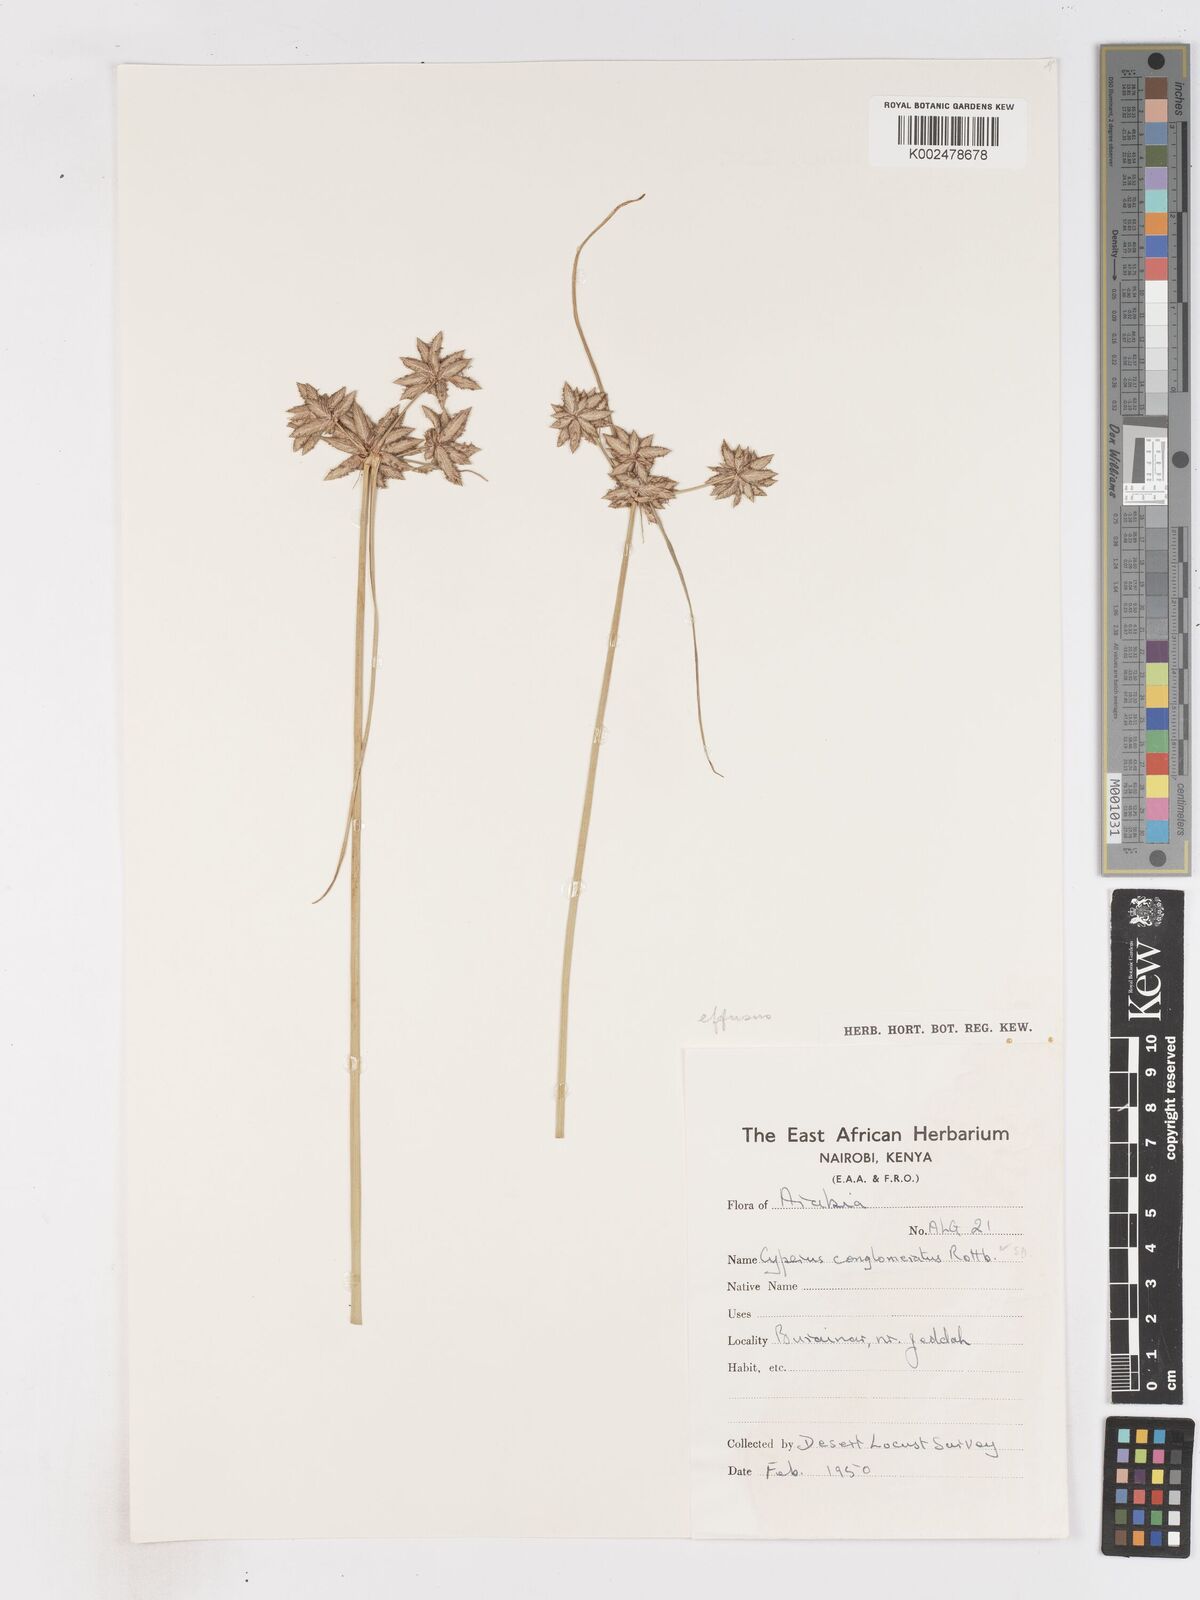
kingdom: Plantae
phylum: Tracheophyta
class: Liliopsida
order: Poales
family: Cyperaceae
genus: Cyperus
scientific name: Cyperus conglomeratus
